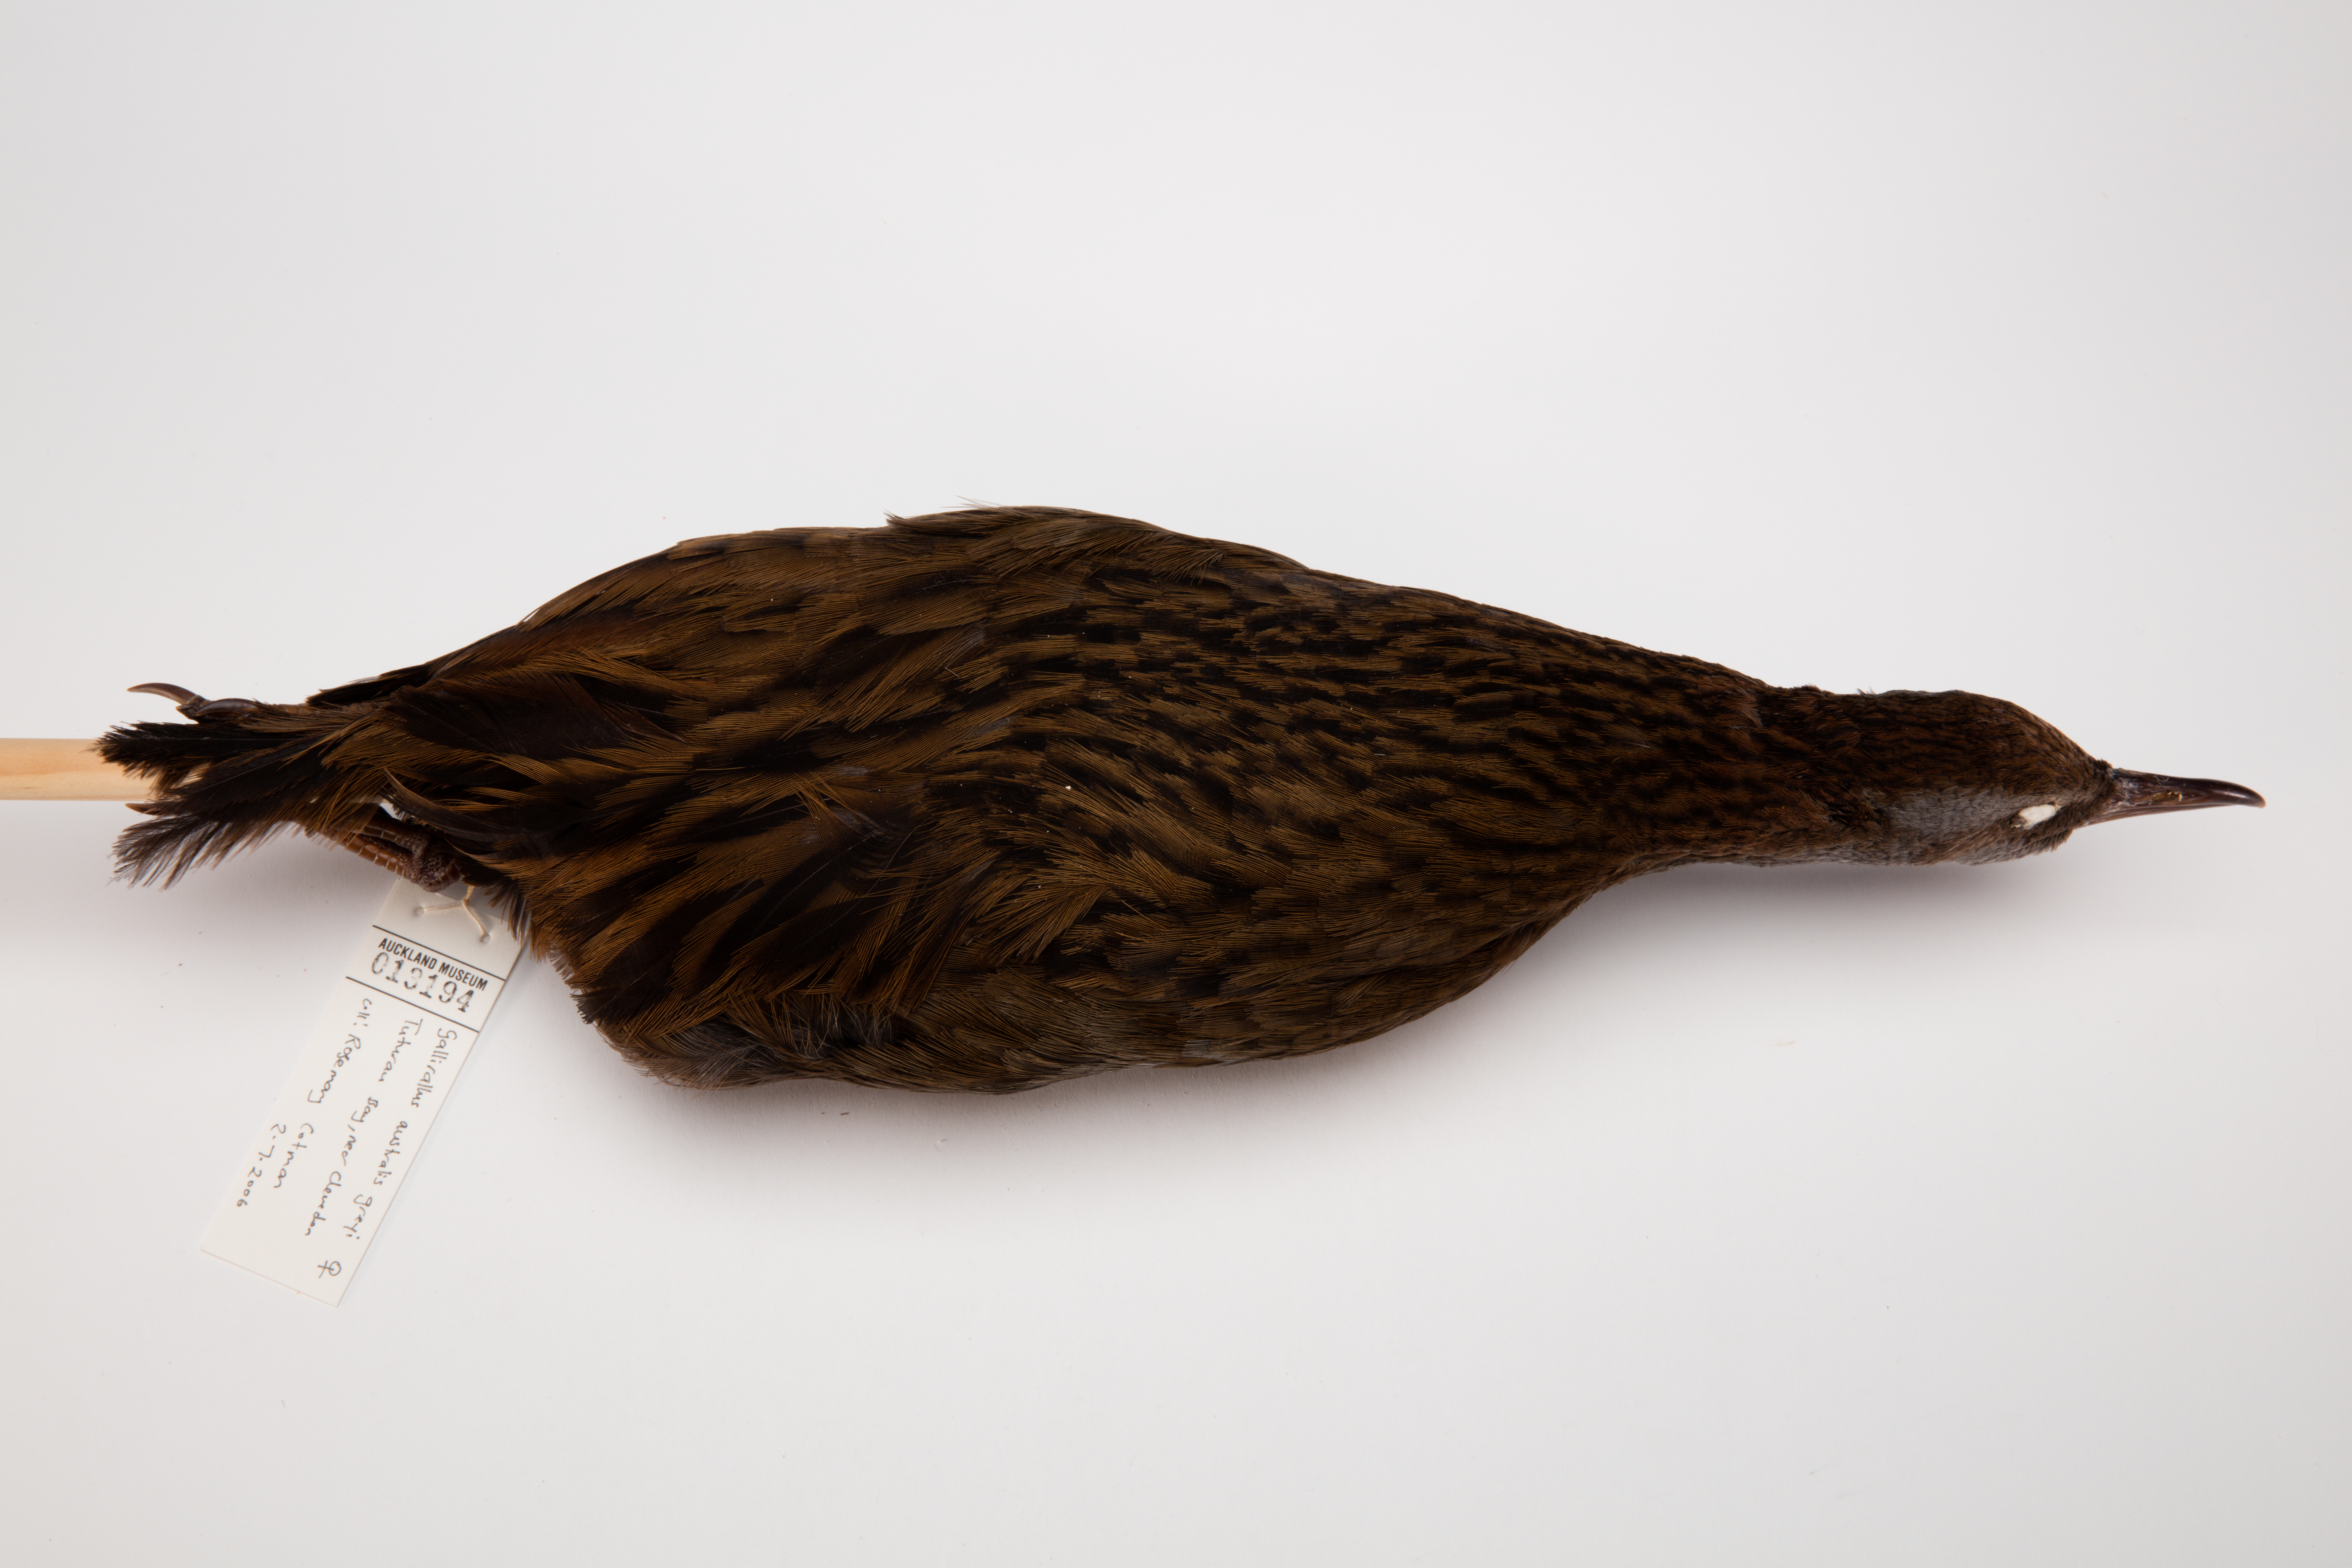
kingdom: Animalia
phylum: Chordata
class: Aves
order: Gruiformes
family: Rallidae
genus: Gallirallus
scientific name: Gallirallus australis
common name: Weka
